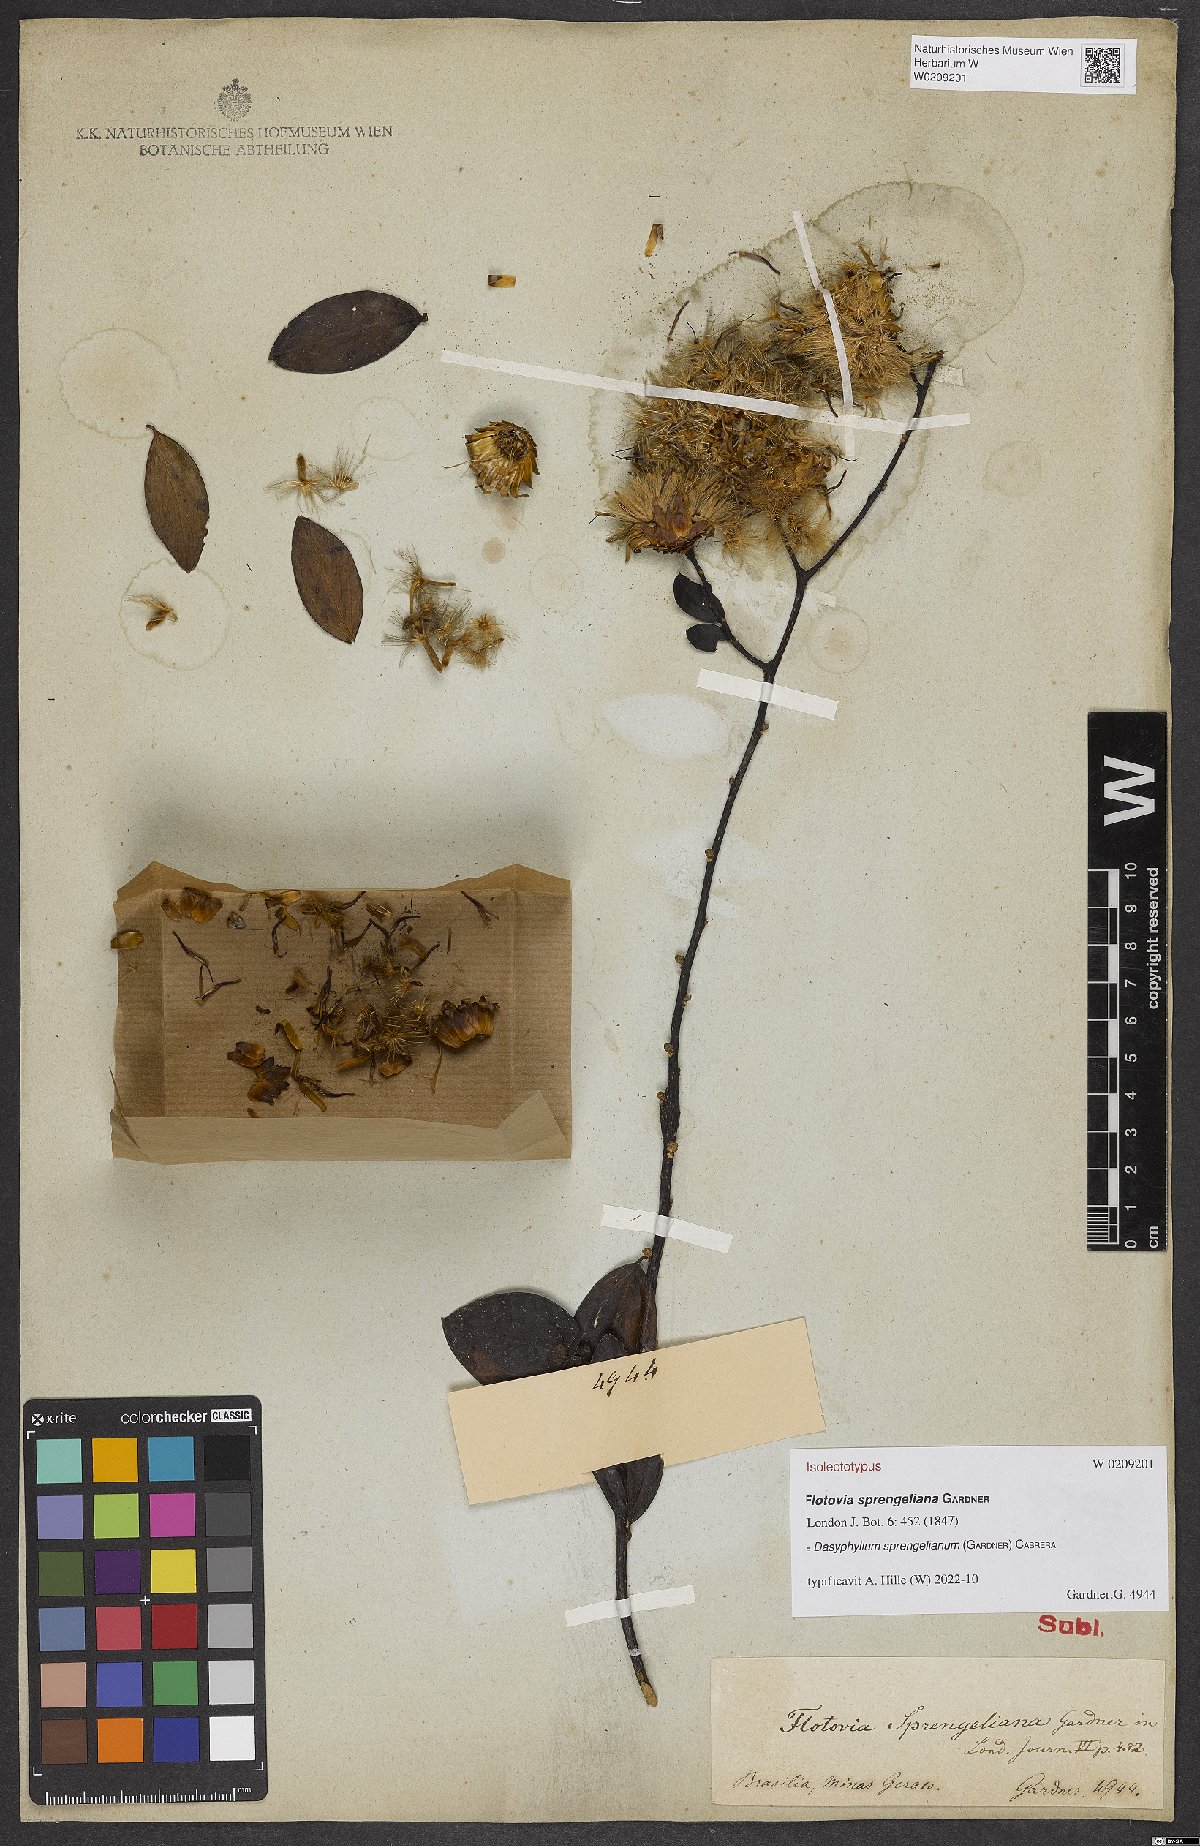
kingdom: Plantae
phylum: Tracheophyta
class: Magnoliopsida
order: Asterales
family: Asteraceae
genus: Dasyphyllum
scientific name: Dasyphyllum sprengelianum
